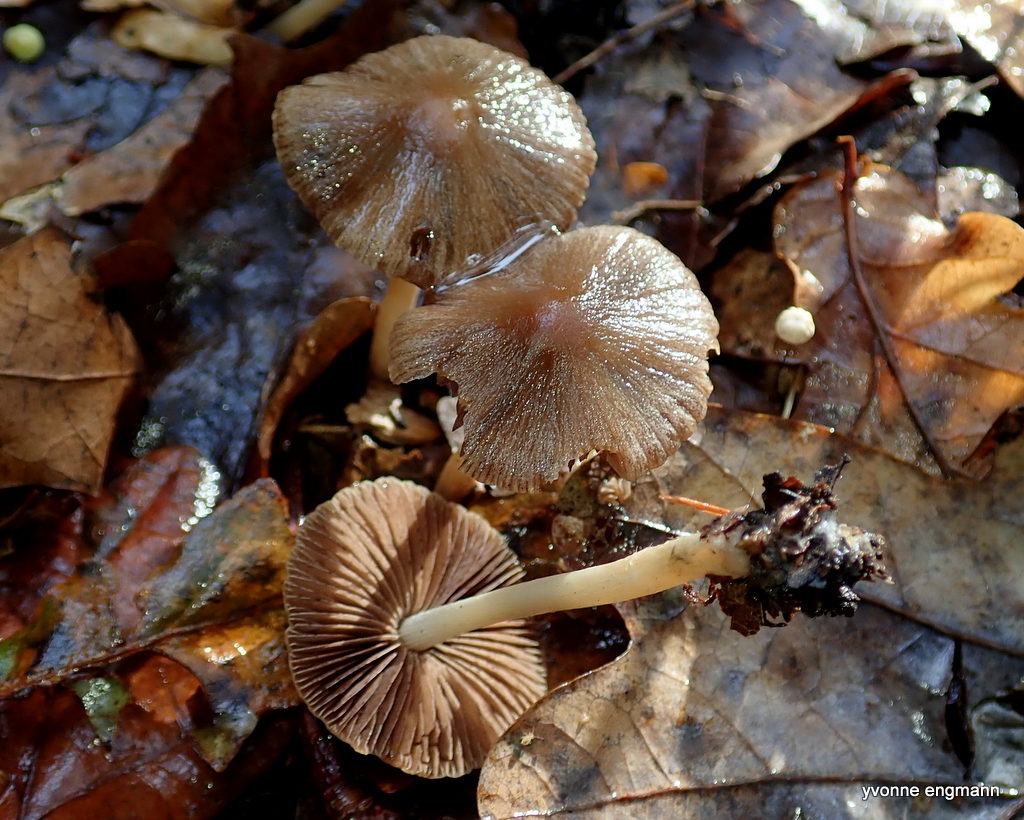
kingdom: Fungi
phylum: Basidiomycota
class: Agaricomycetes
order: Agaricales
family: Psathyrellaceae
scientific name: Psathyrellaceae
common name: mørkhatfamilien
